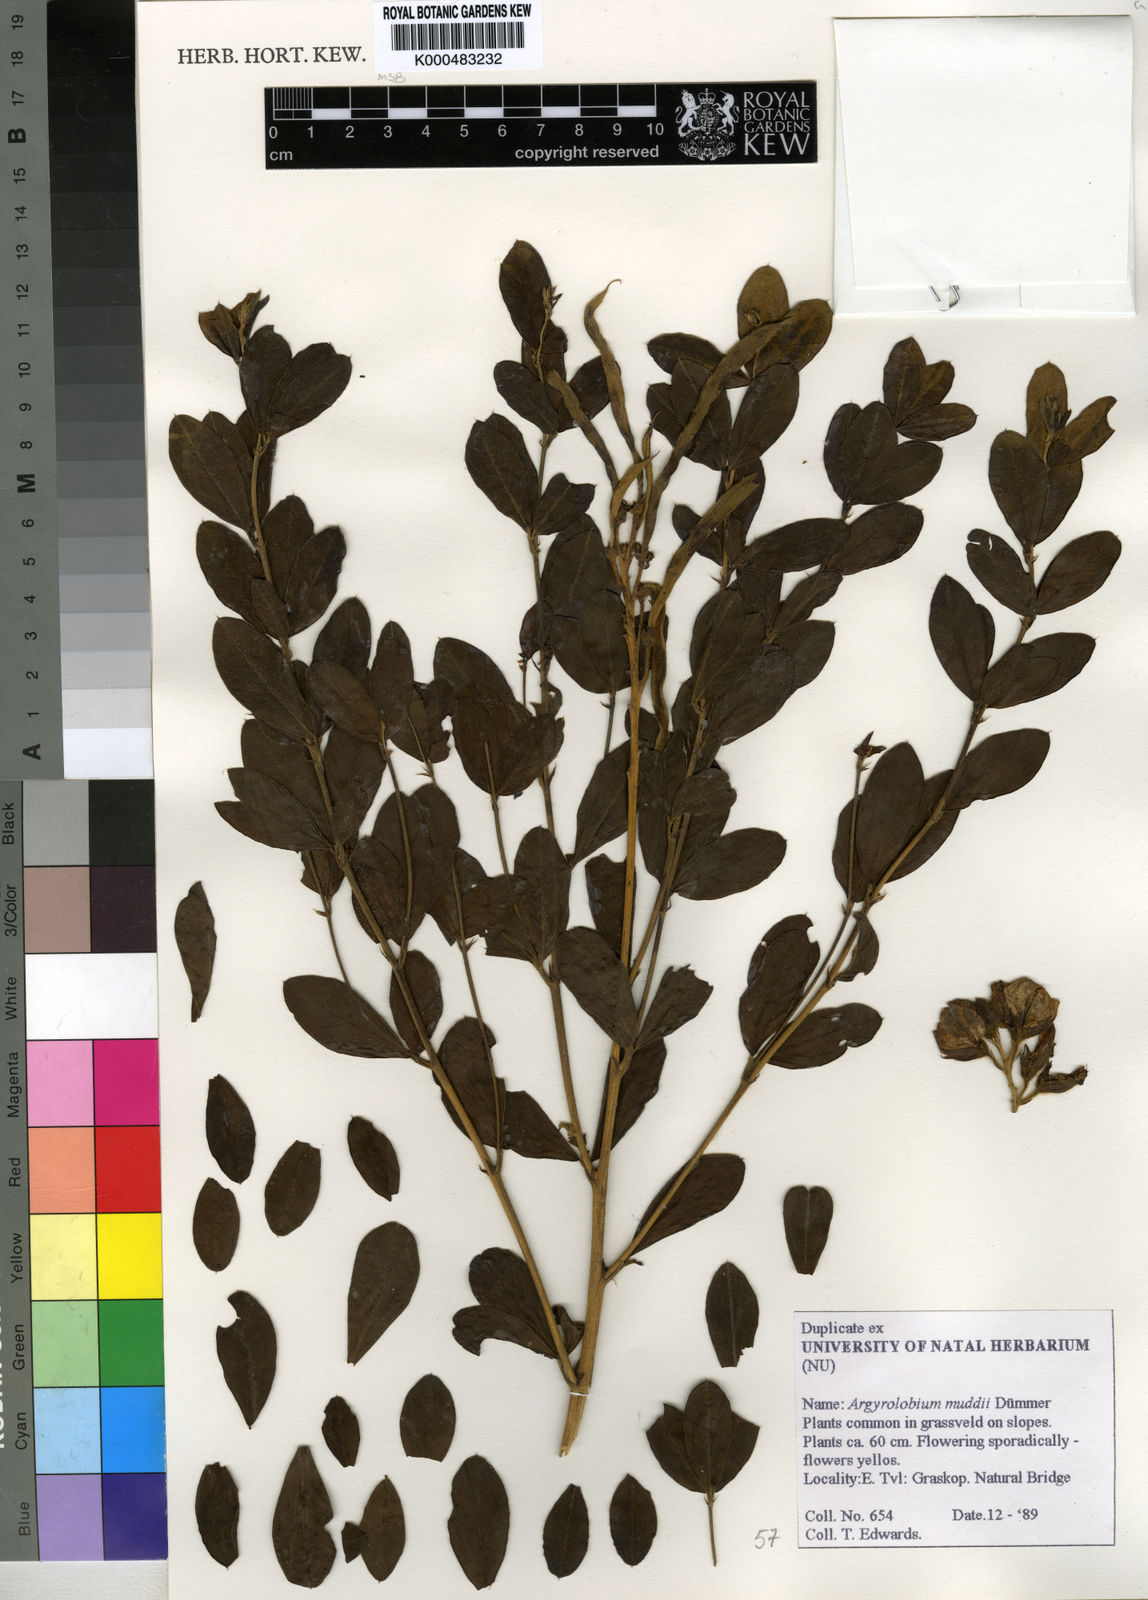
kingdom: Plantae
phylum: Tracheophyta
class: Magnoliopsida
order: Fabales
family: Fabaceae
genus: Argyrolobium
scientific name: Argyrolobium muddii
